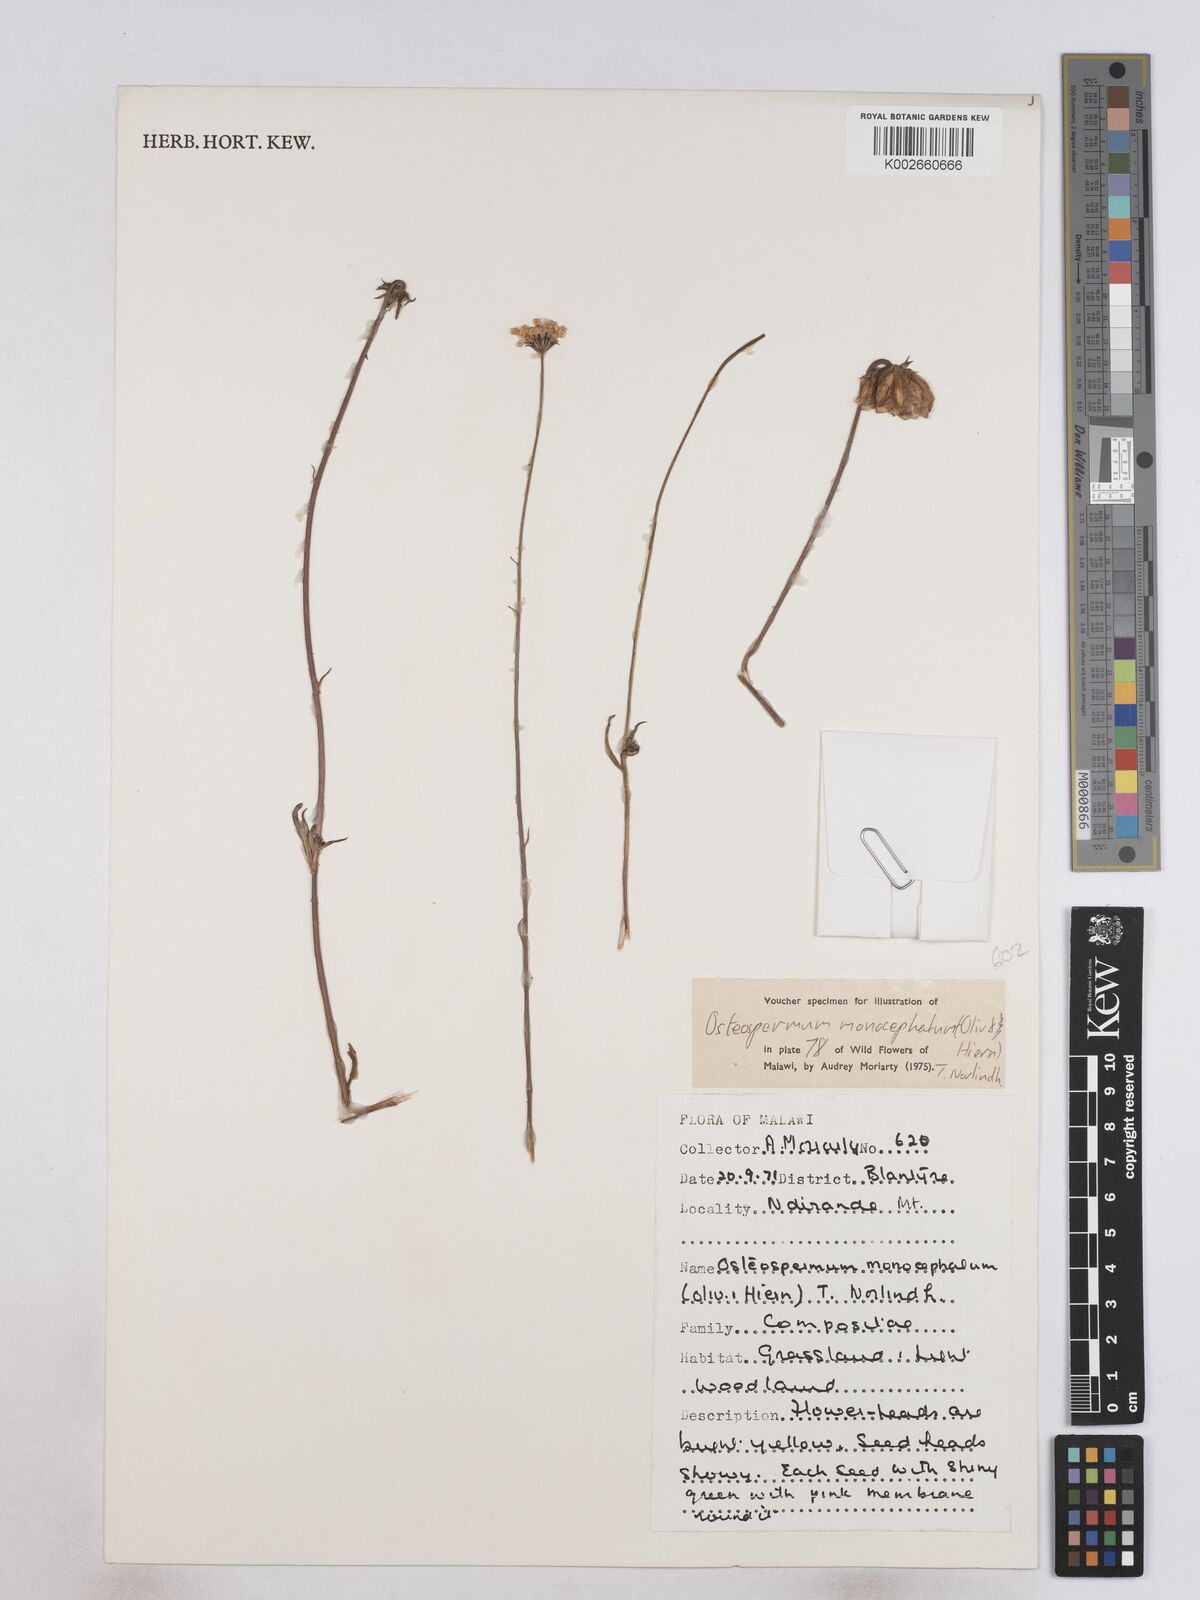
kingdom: Plantae
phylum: Tracheophyta
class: Magnoliopsida
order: Asterales
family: Asteraceae
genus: Osteospermum
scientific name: Osteospermum monocephalum
